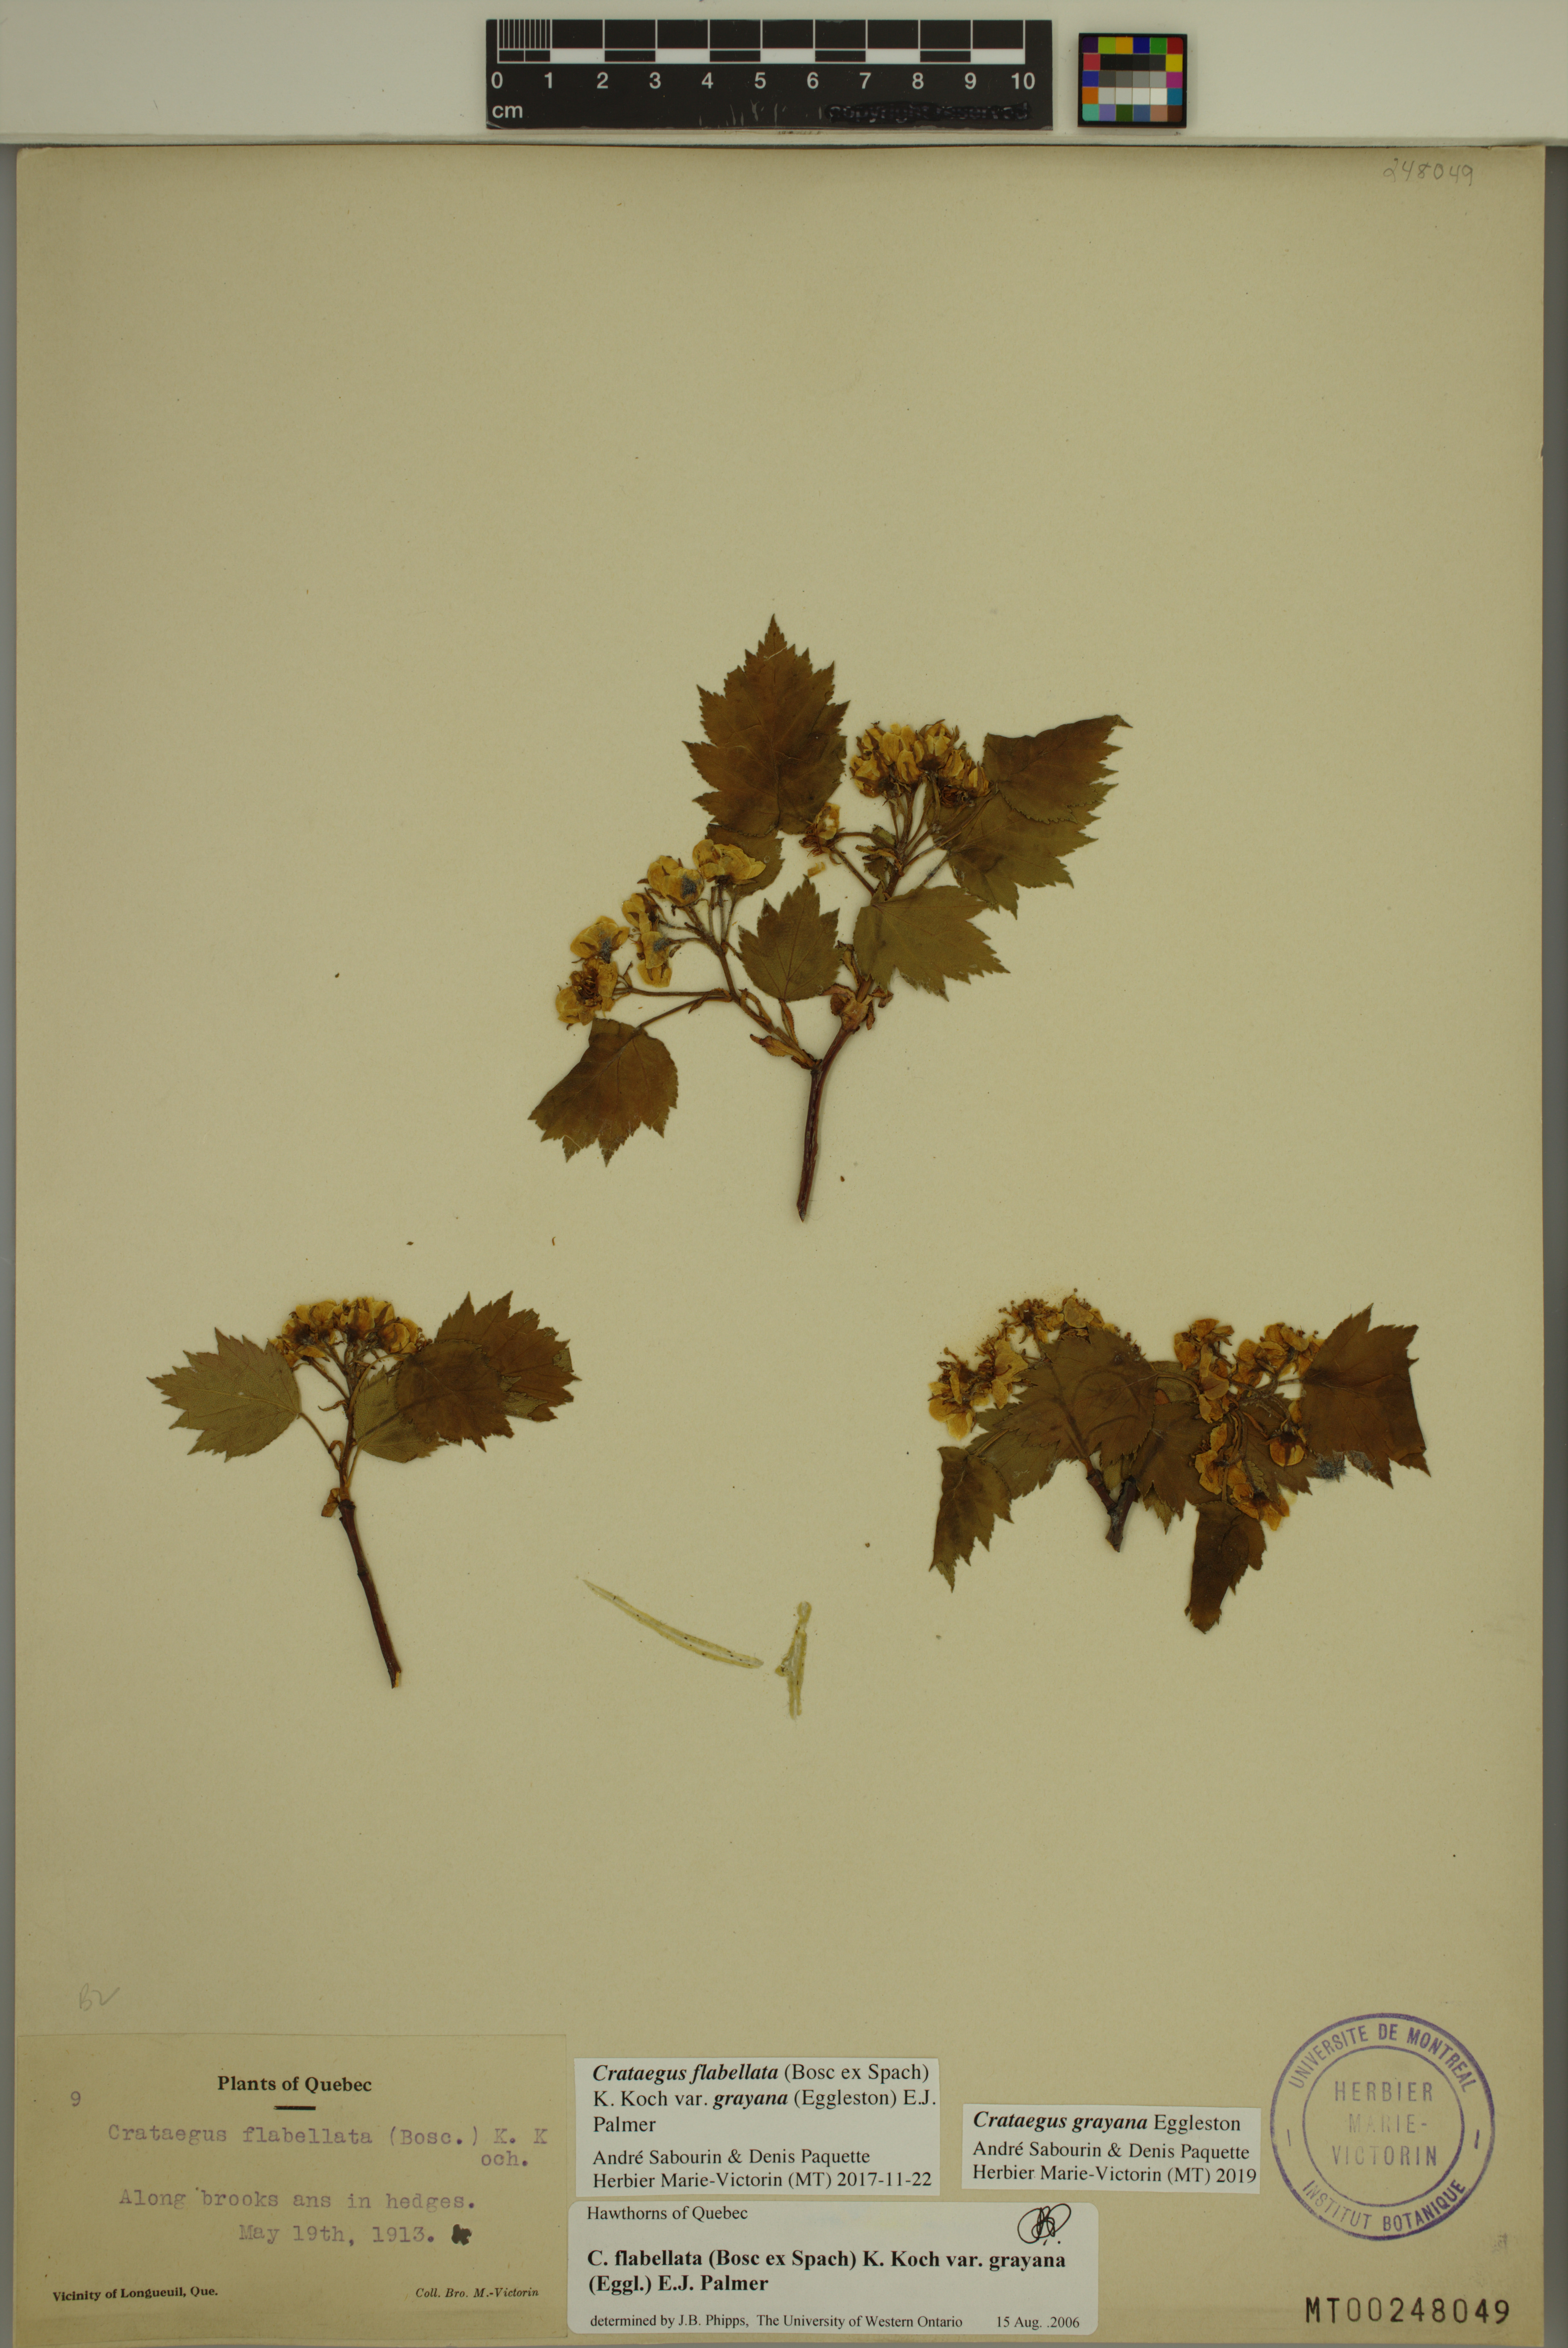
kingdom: Plantae
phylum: Tracheophyta
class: Magnoliopsida
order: Rosales
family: Rosaceae
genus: Crataegus
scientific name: Crataegus schuettei
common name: Schuette's hawthorn
